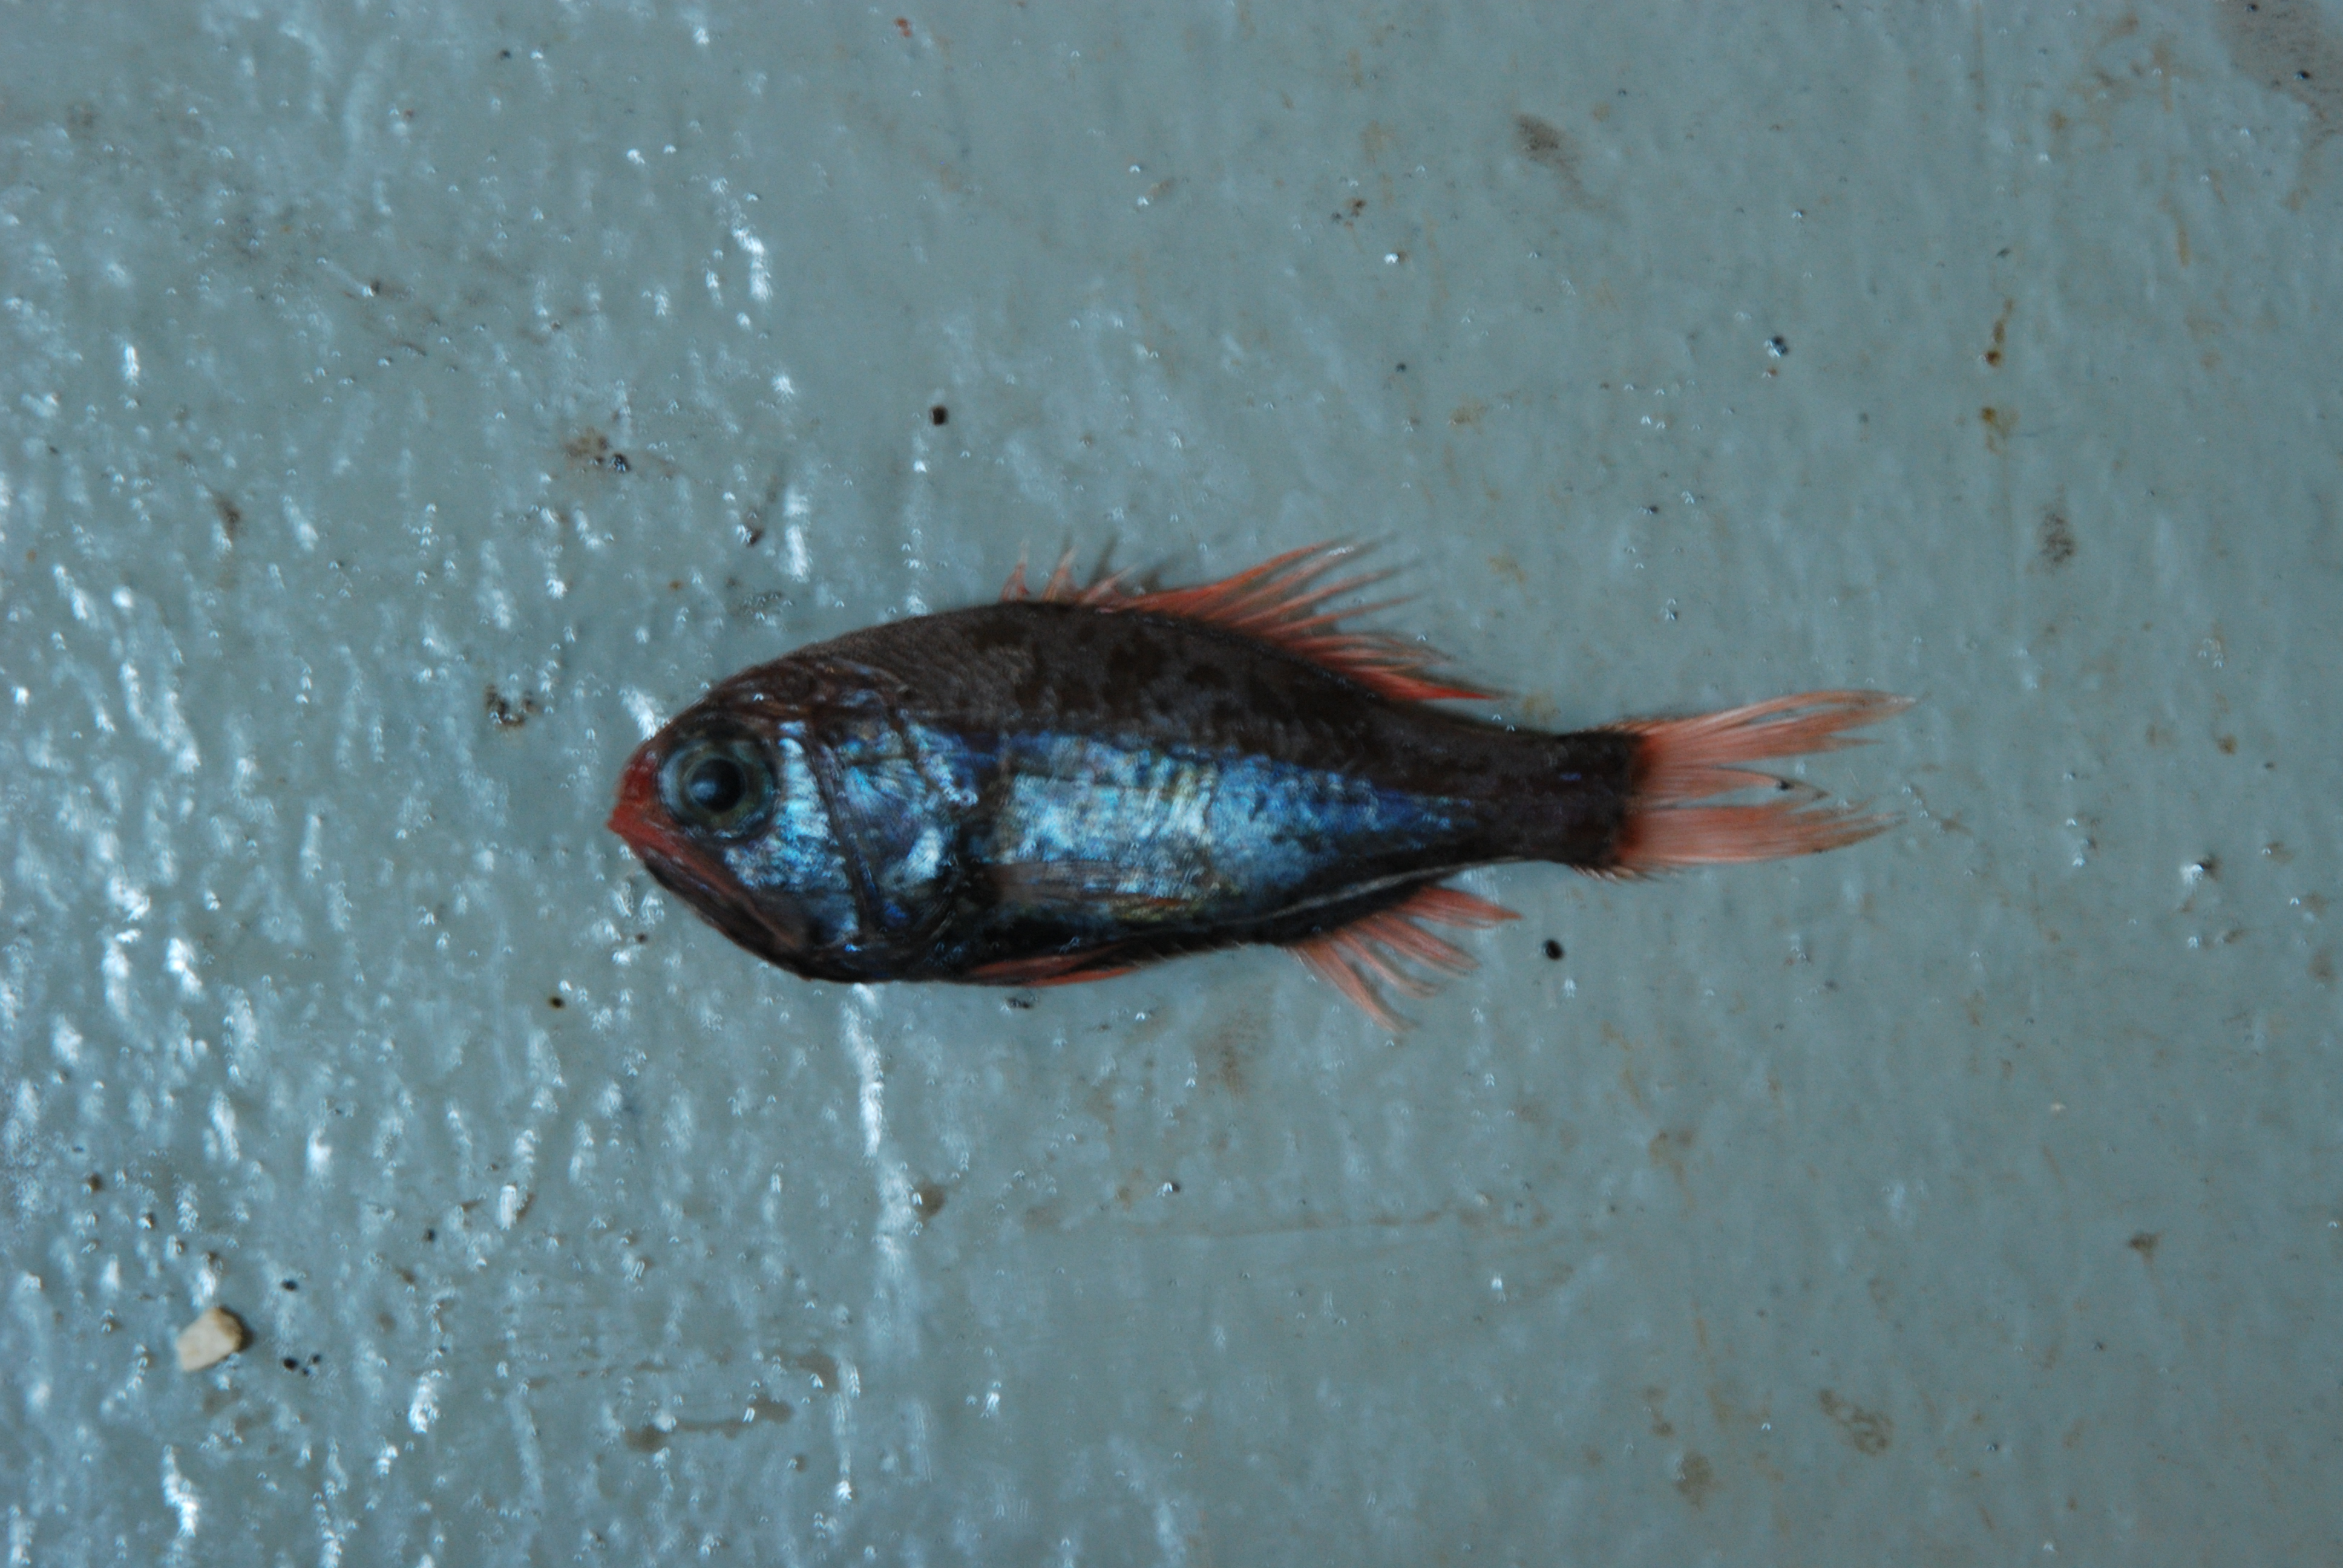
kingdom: Animalia
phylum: Chordata
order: Beryciformes
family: Trachichthyidae
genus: Gephyroberyx
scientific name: Gephyroberyx japonicus
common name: Big roughy
